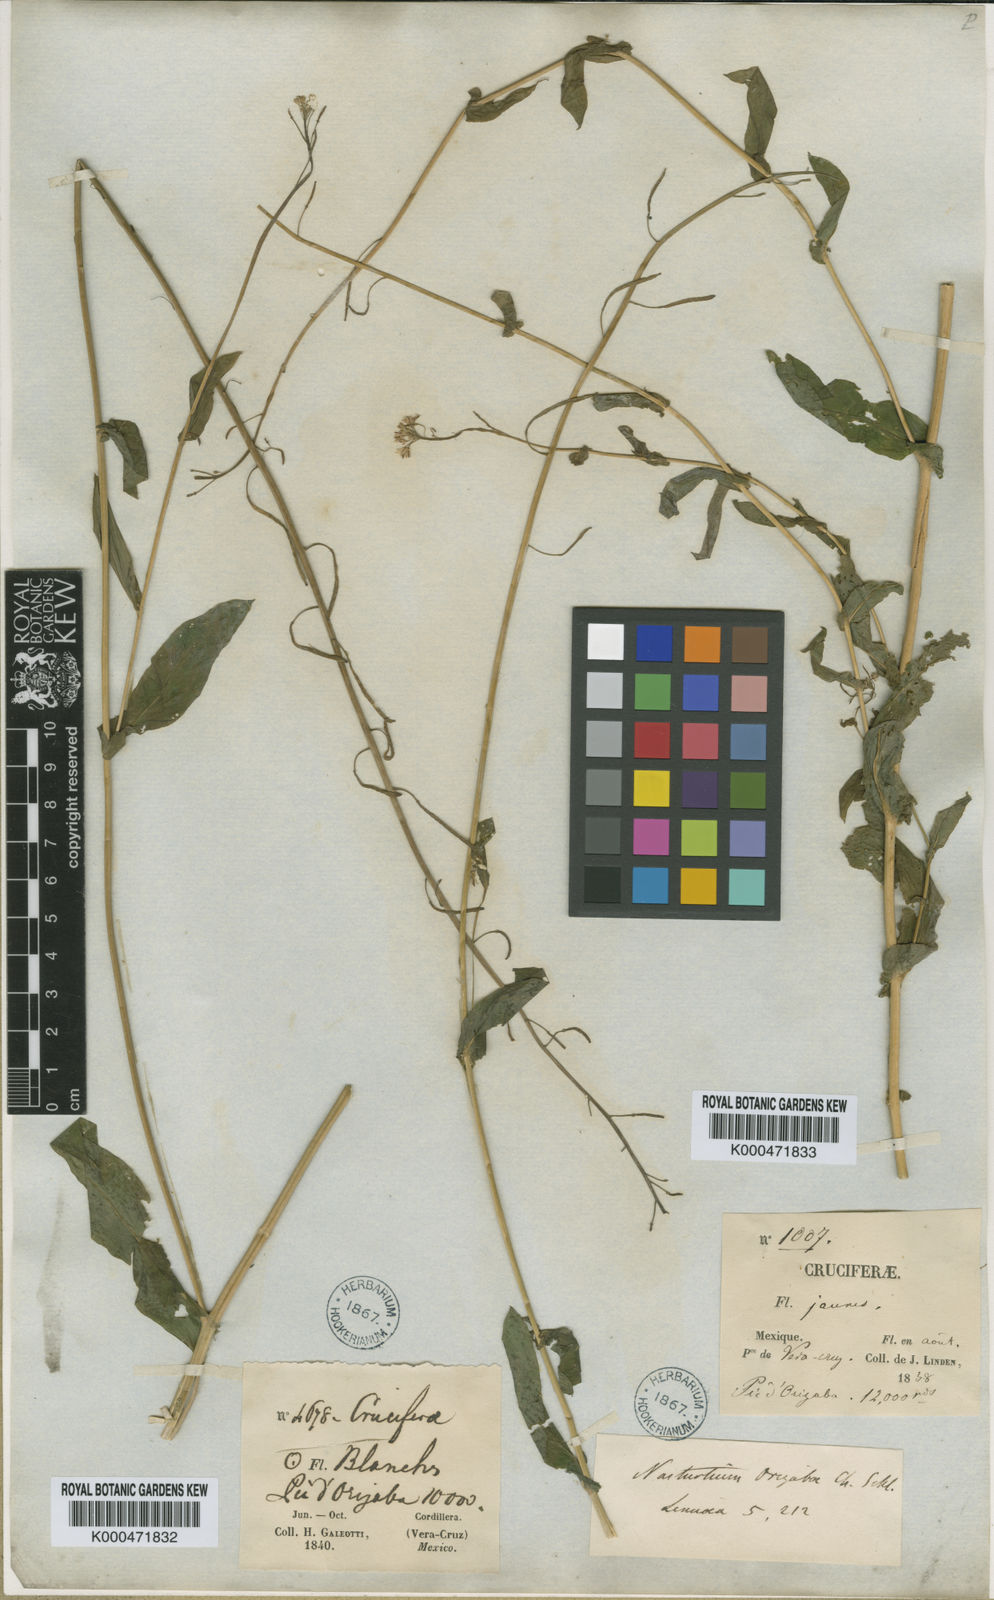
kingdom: Plantae
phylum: Tracheophyta
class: Magnoliopsida
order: Brassicales
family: Brassicaceae
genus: Romanschulzia
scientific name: Romanschulzia orizabae
